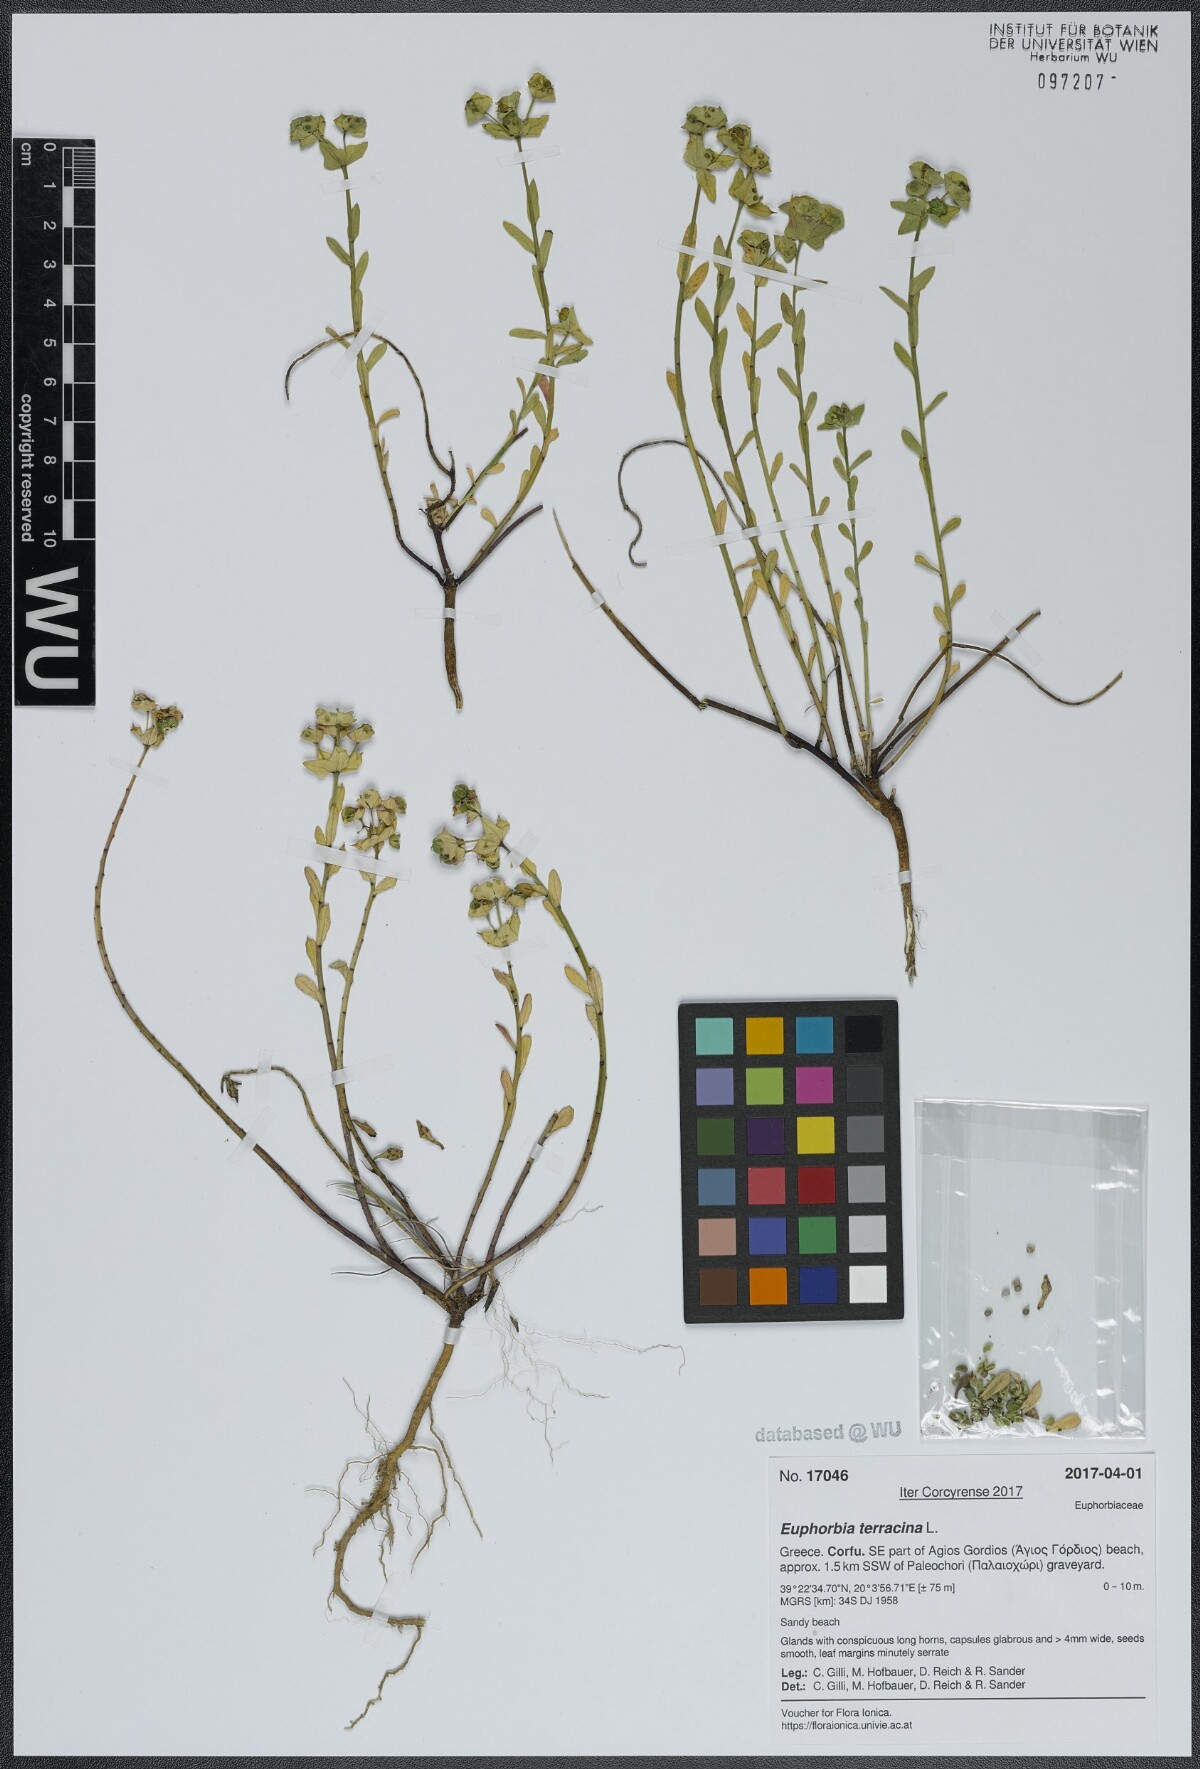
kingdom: Plantae
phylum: Tracheophyta
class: Magnoliopsida
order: Malpighiales
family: Euphorbiaceae
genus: Euphorbia
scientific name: Euphorbia terracina
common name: Geraldton carnation weed
